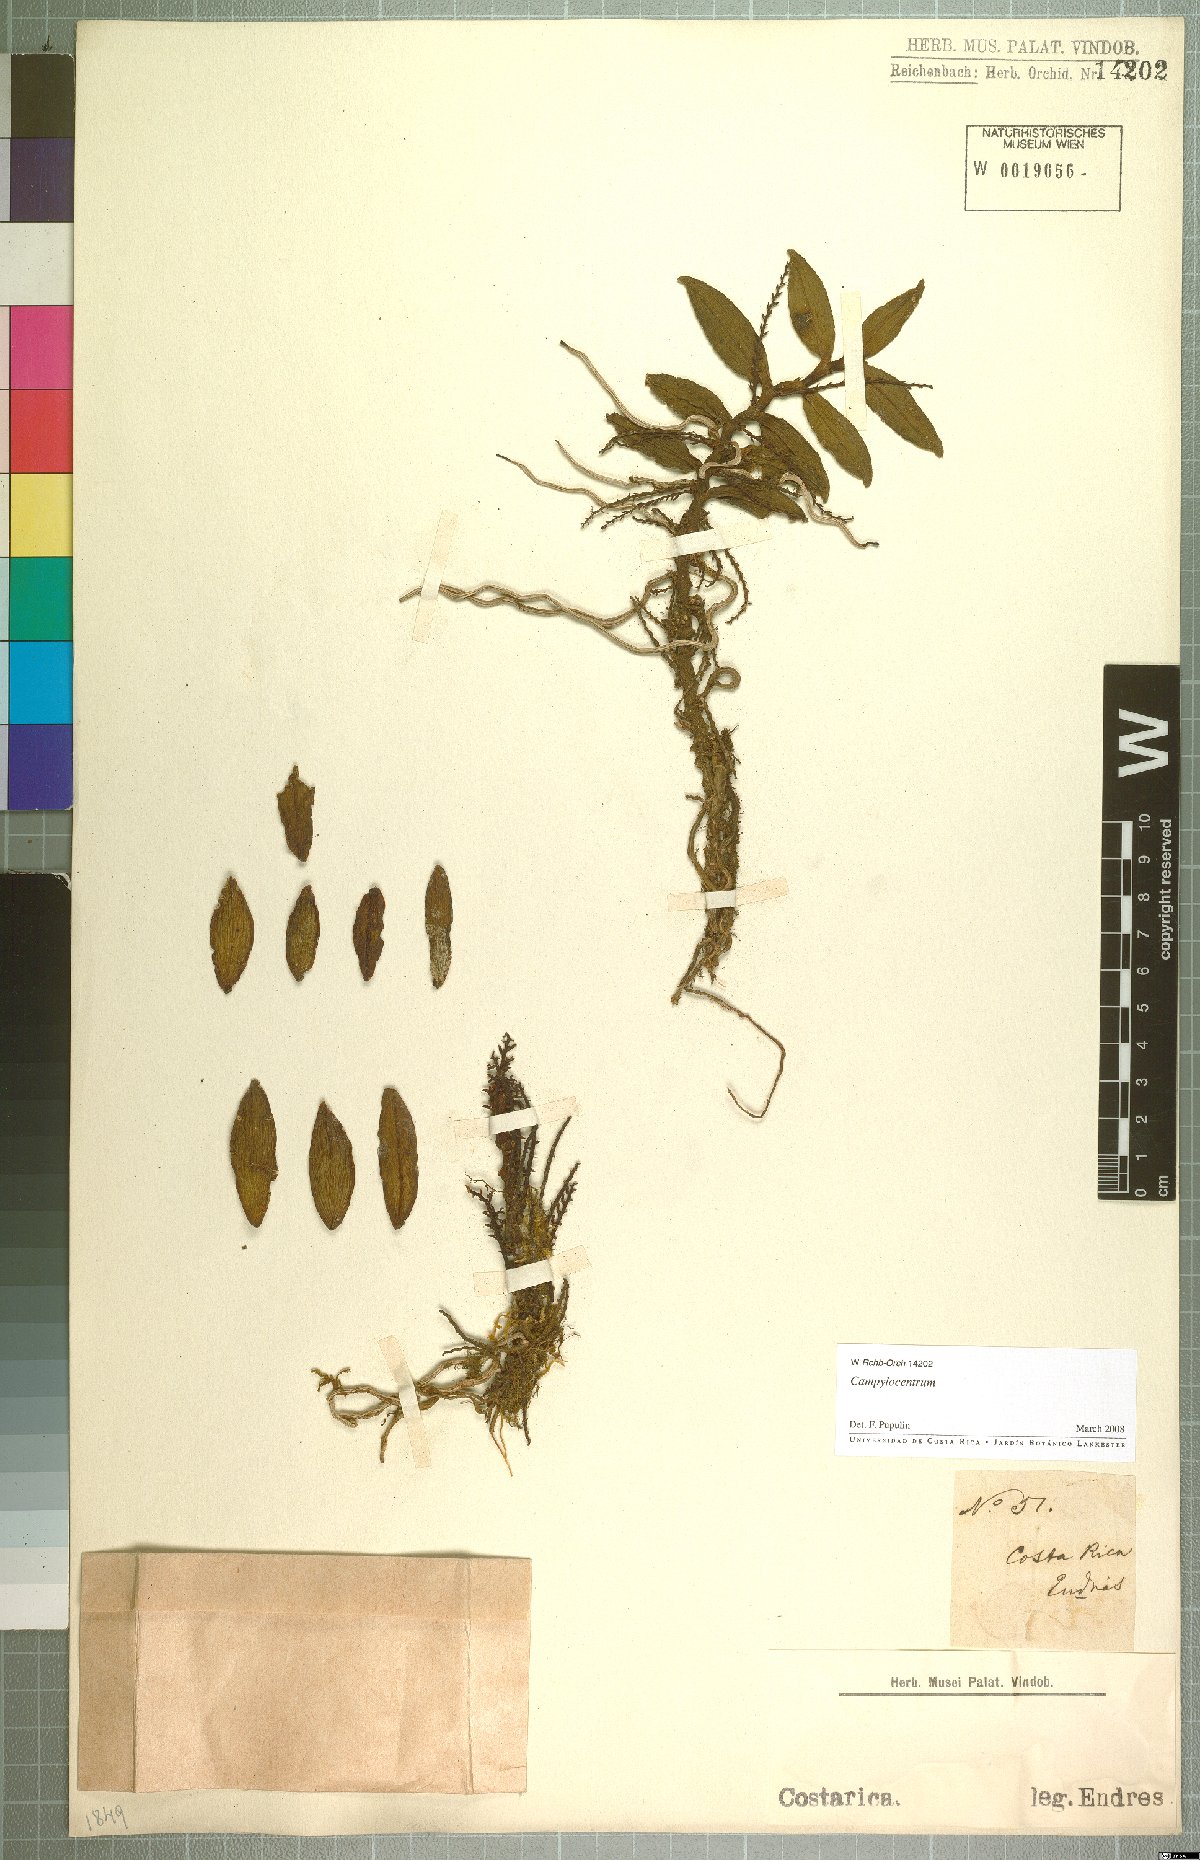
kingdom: Plantae
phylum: Tracheophyta
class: Liliopsida
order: Asparagales
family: Orchidaceae
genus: Campylocentrum
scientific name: Campylocentrum
